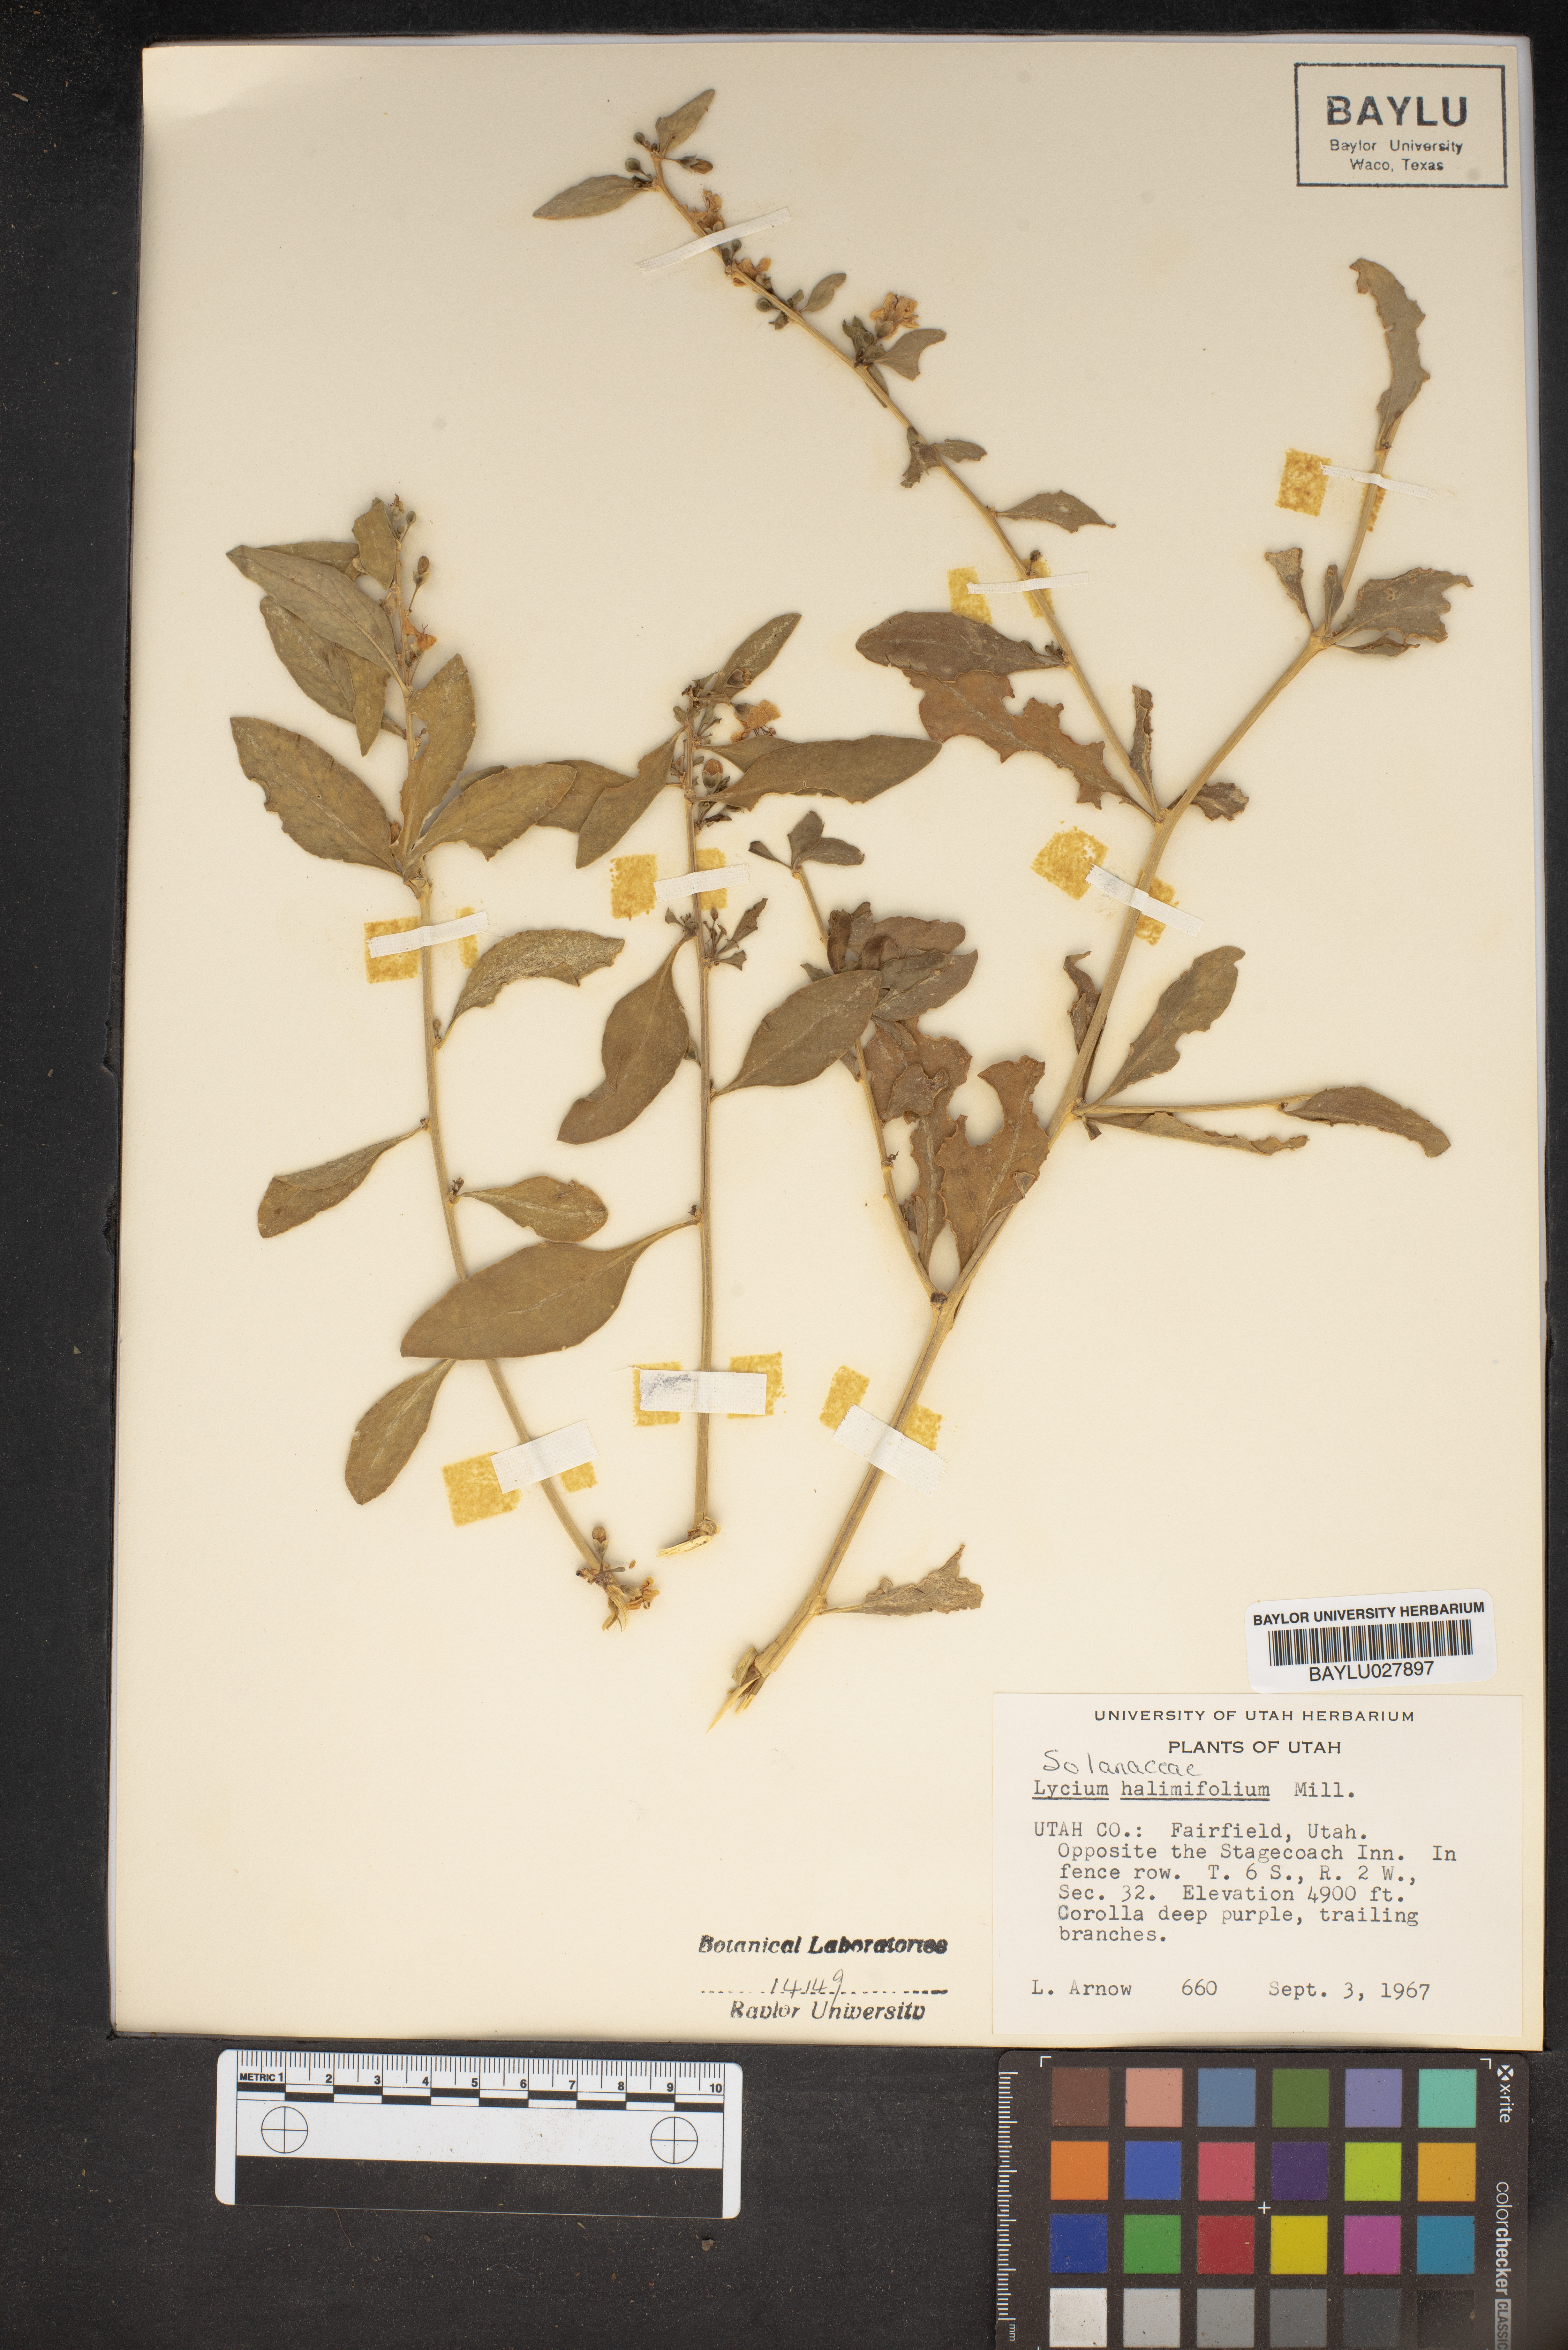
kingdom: Plantae
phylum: Tracheophyta
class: Magnoliopsida
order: Solanales
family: Solanaceae
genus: Lycium
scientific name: Lycium barbarum
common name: Duke of argyll's teaplant
